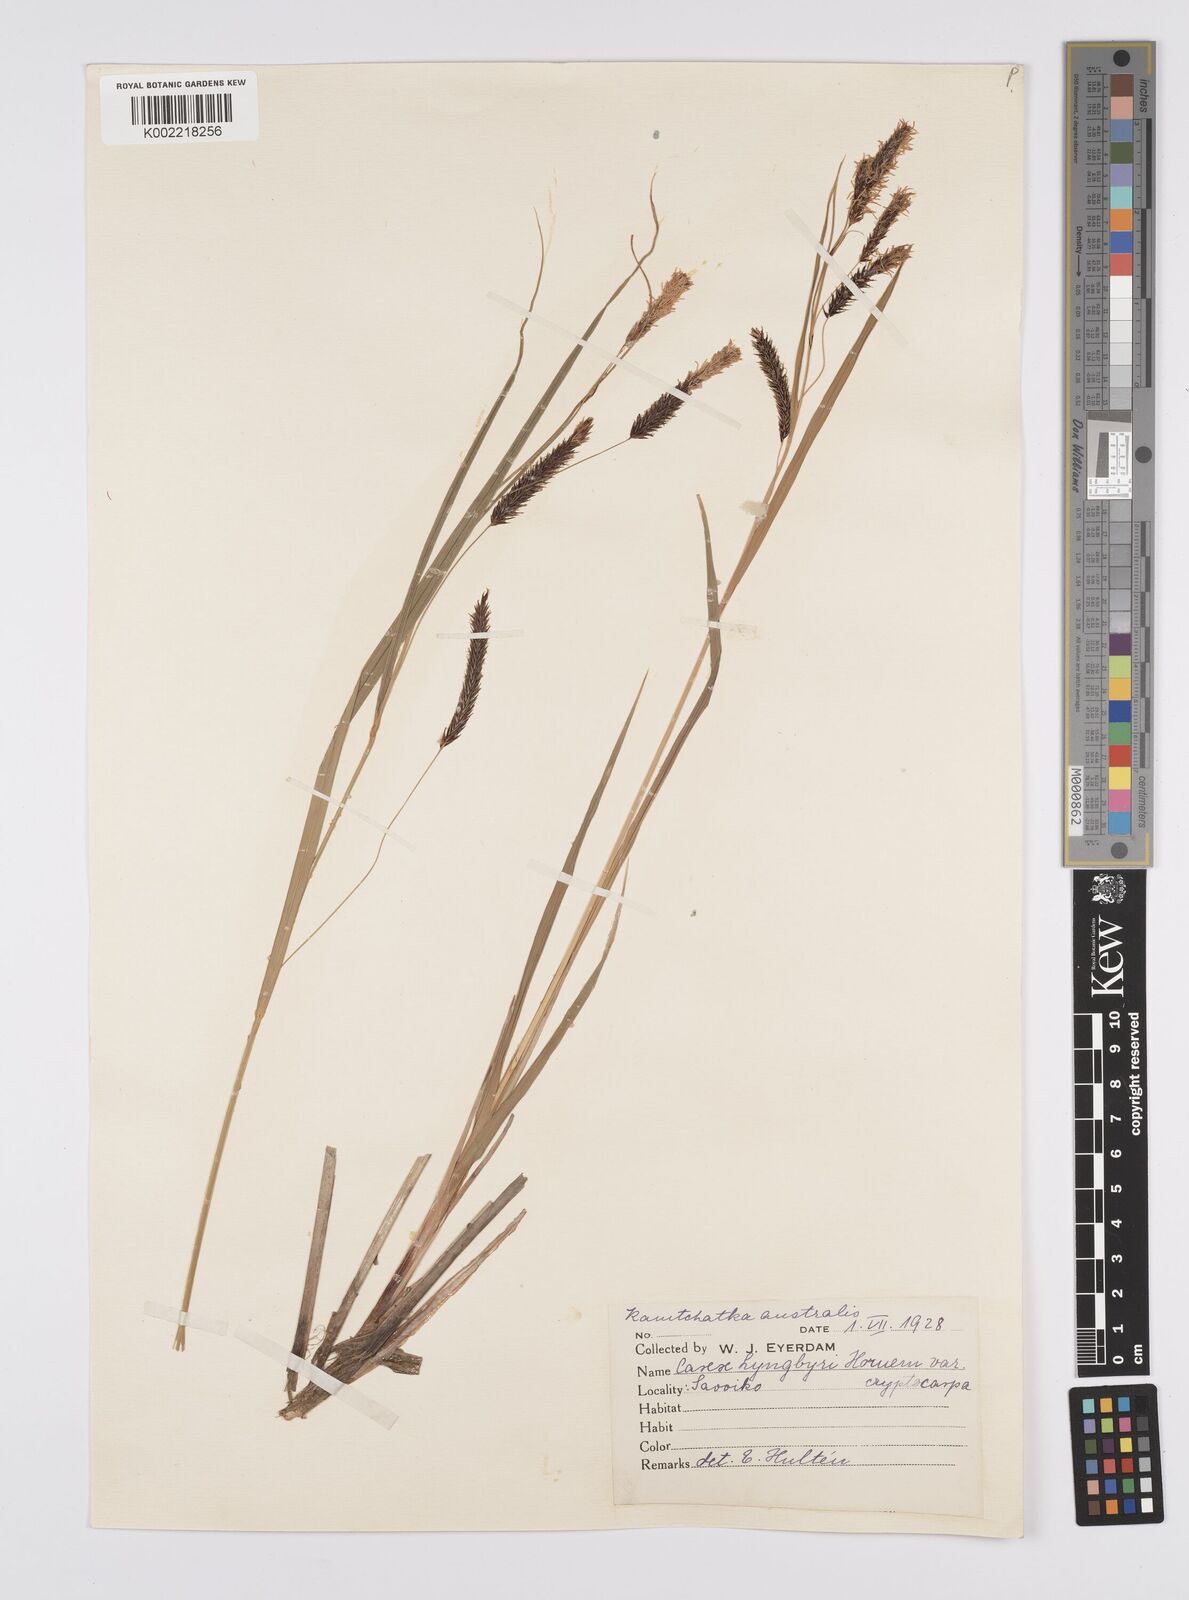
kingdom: Plantae
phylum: Tracheophyta
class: Liliopsida
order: Poales
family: Cyperaceae
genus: Carex
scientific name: Carex lyngbyei
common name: Lyngbye's sedge
